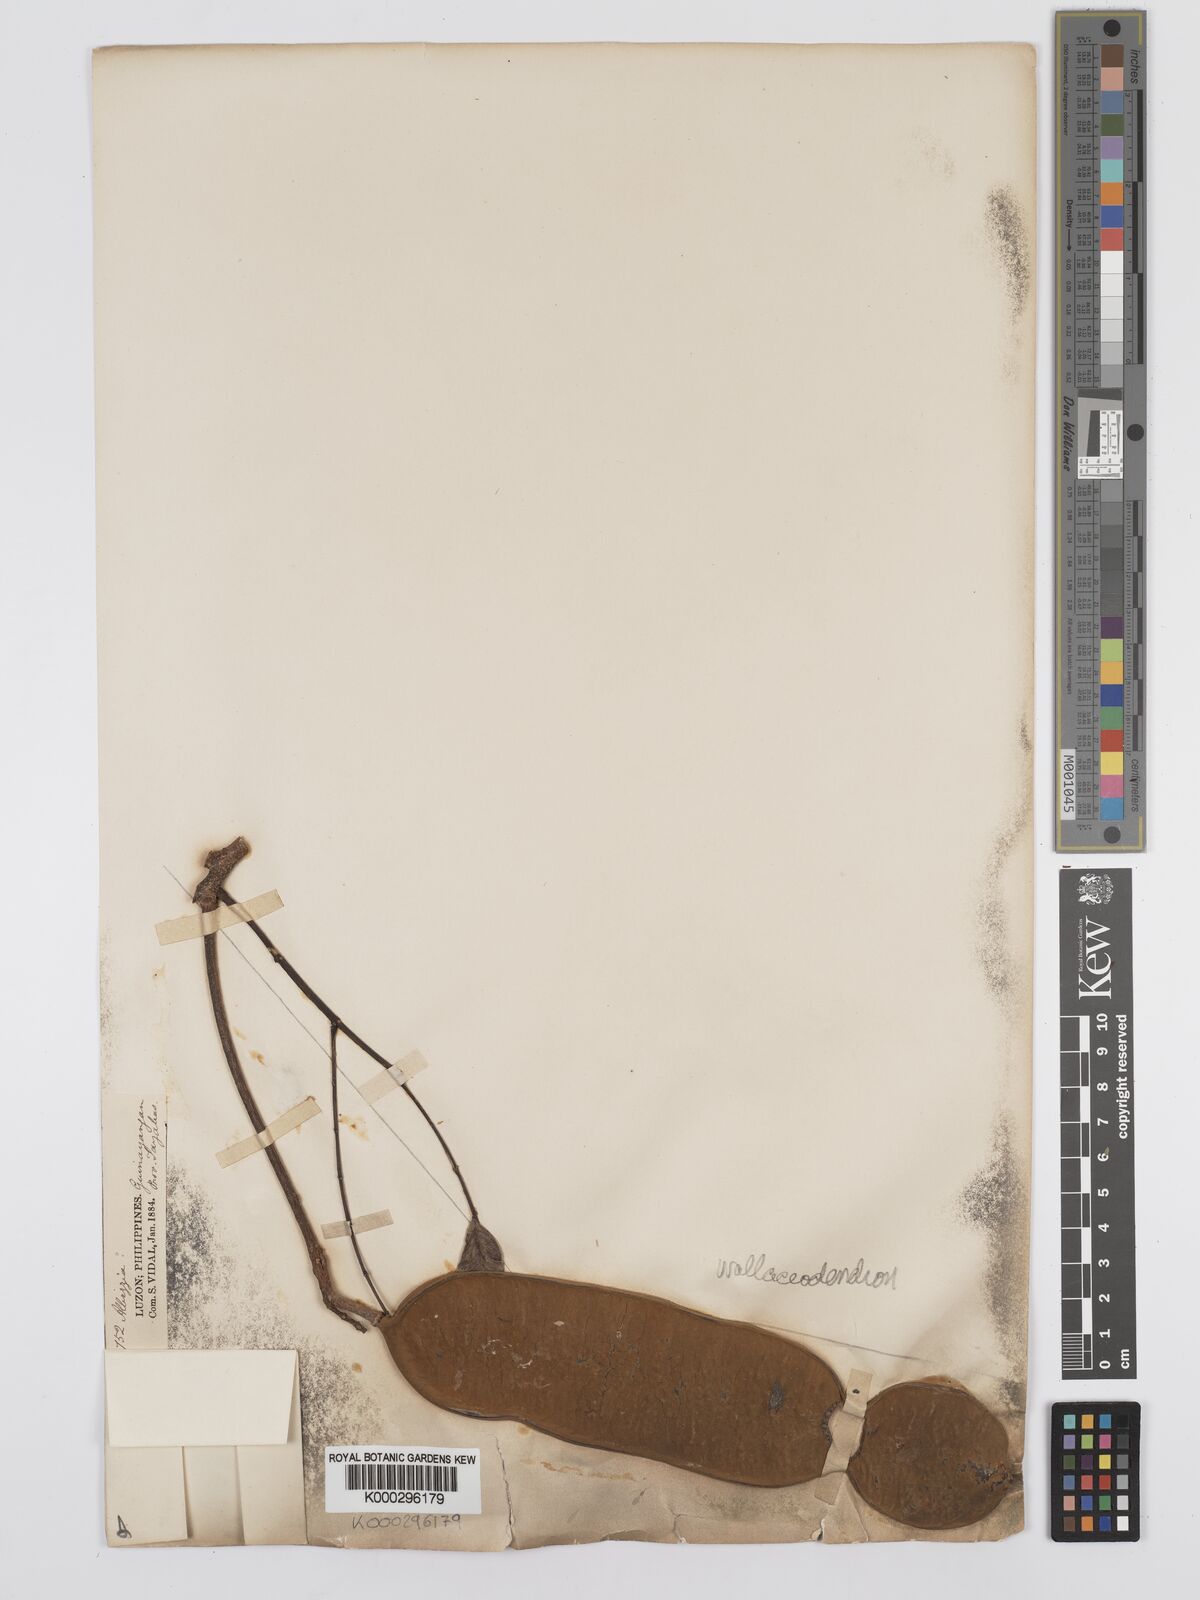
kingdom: Plantae
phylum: Tracheophyta
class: Magnoliopsida
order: Fabales
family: Fabaceae
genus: Wallaceodendron
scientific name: Wallaceodendron celebicum
